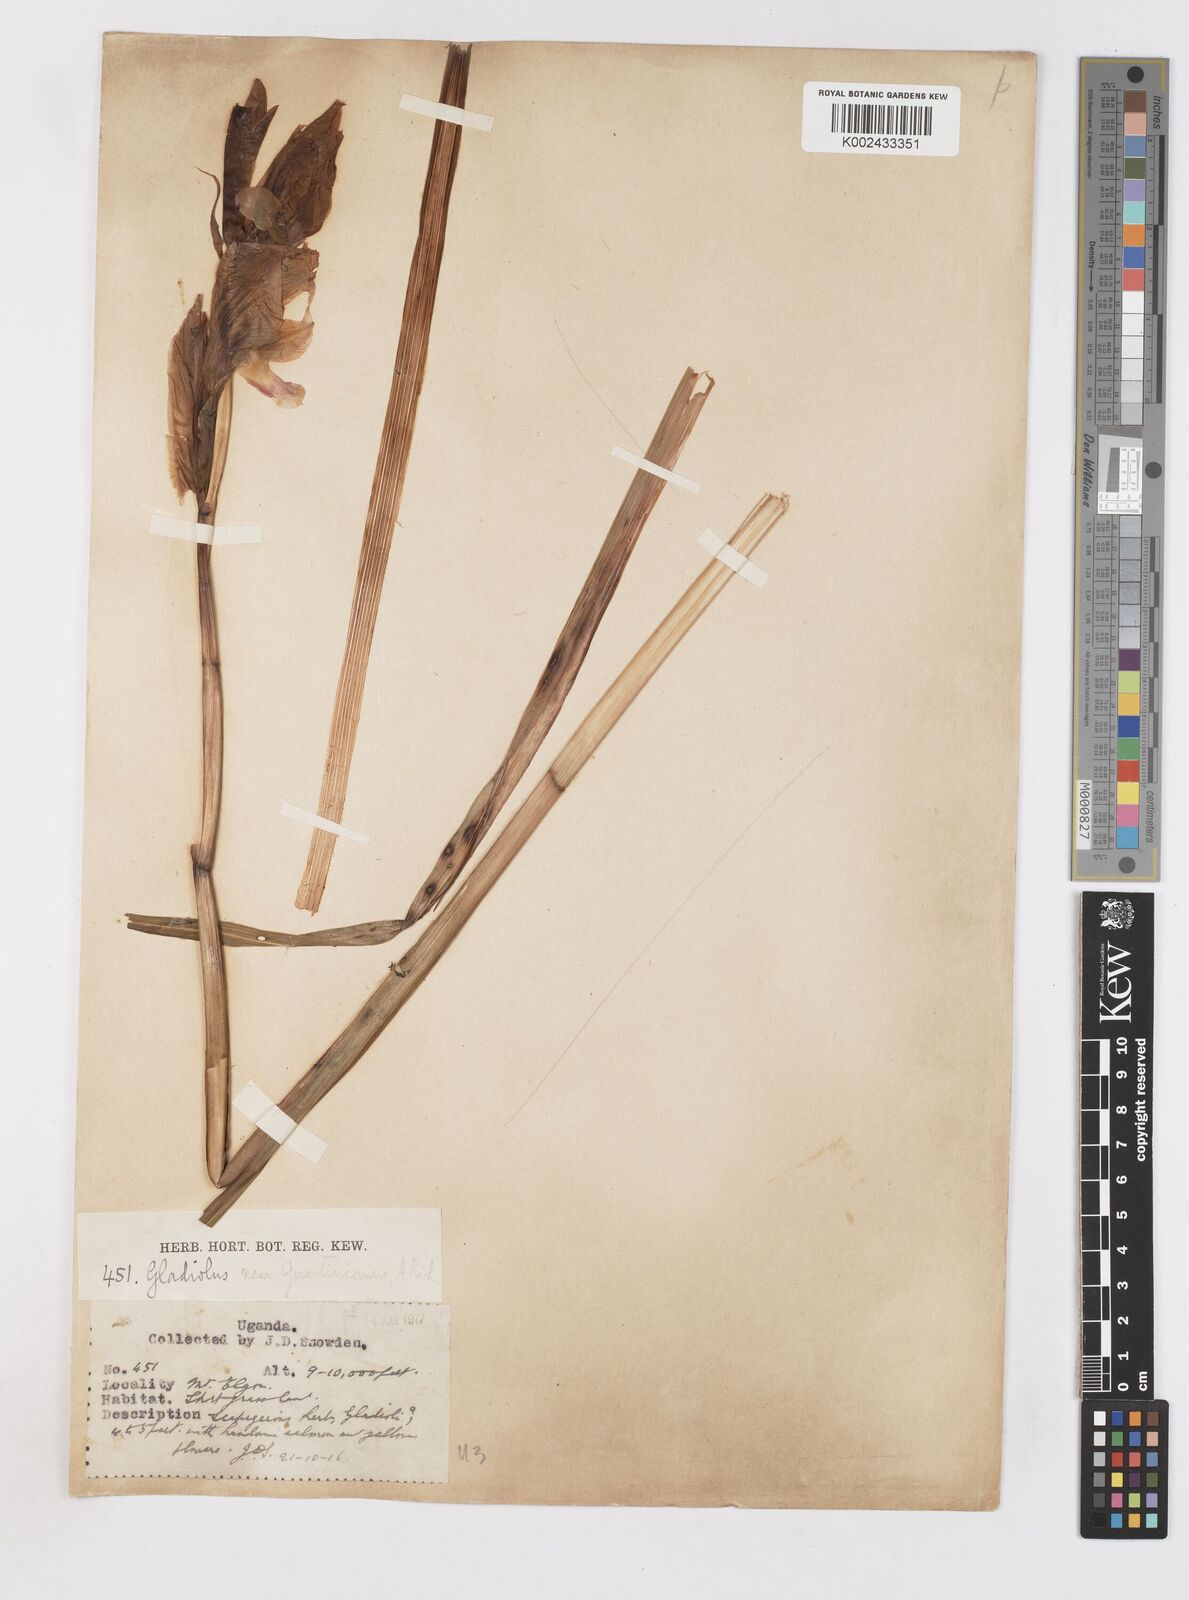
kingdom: Plantae
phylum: Tracheophyta
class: Liliopsida
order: Asparagales
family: Iridaceae
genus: Gladiolus
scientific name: Gladiolus dalenii
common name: Cornflag
